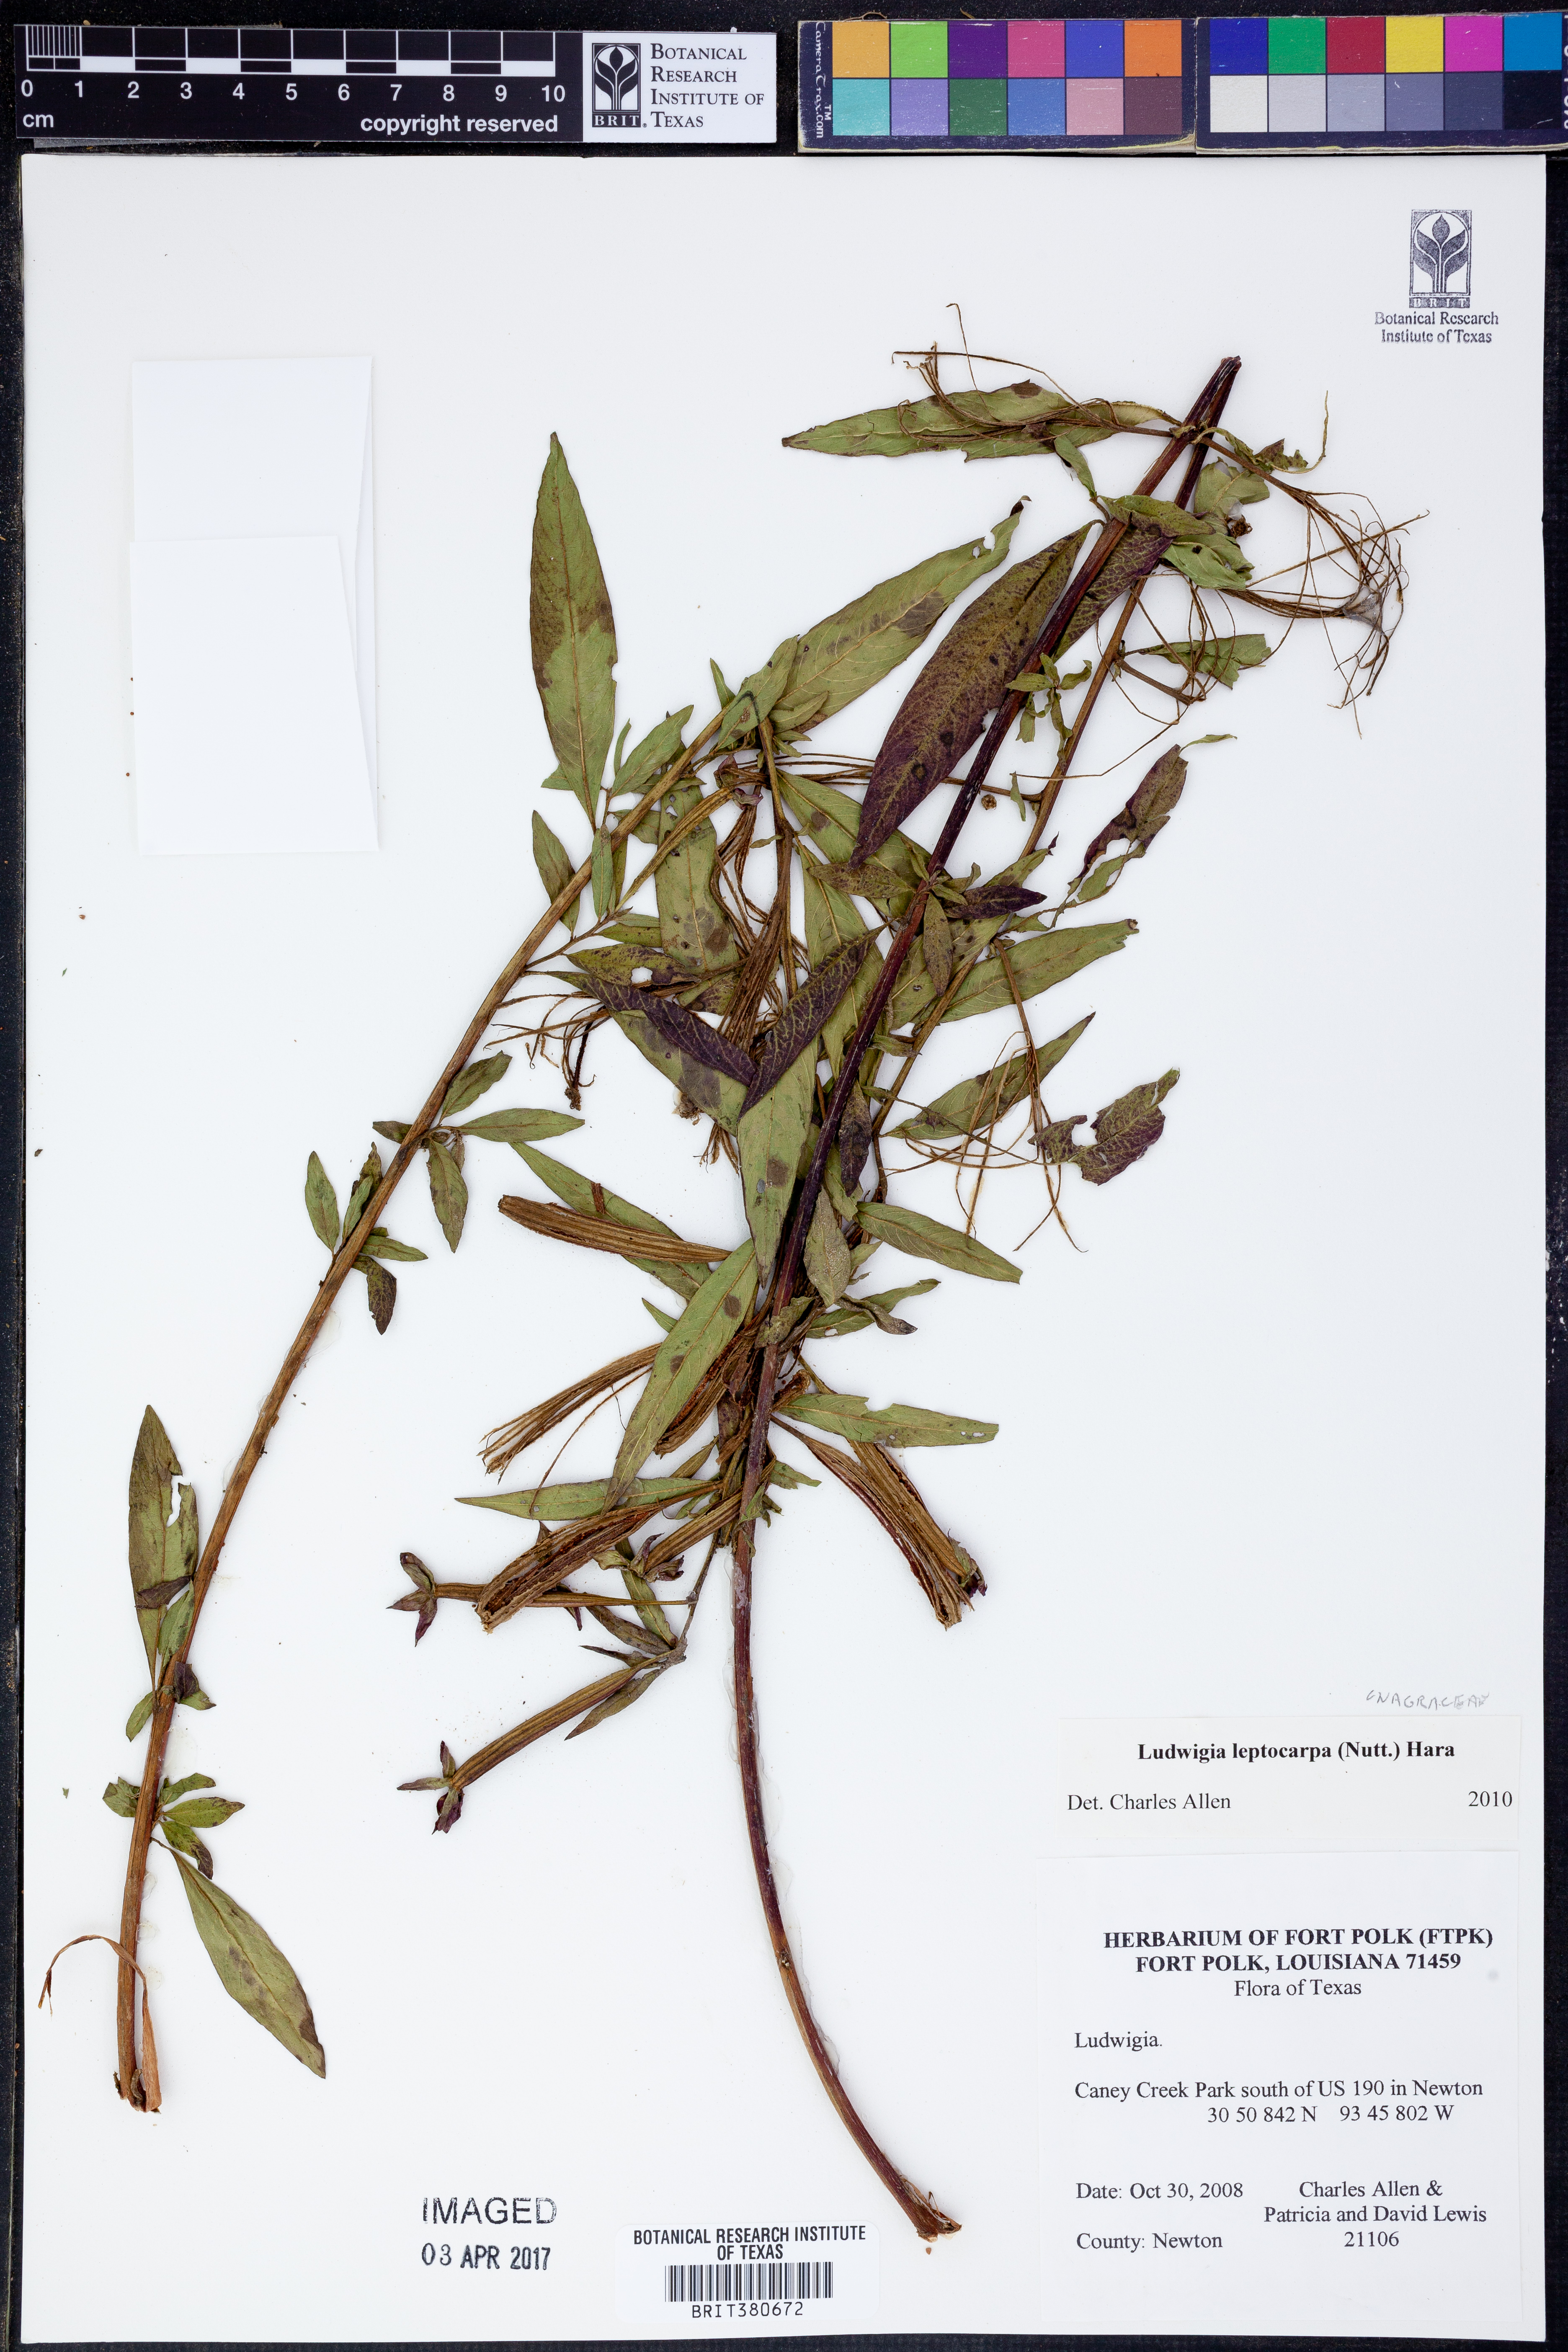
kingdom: Plantae
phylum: Tracheophyta
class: Magnoliopsida
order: Myrtales
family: Onagraceae
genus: Ludwigia
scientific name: Ludwigia leptocarpa
